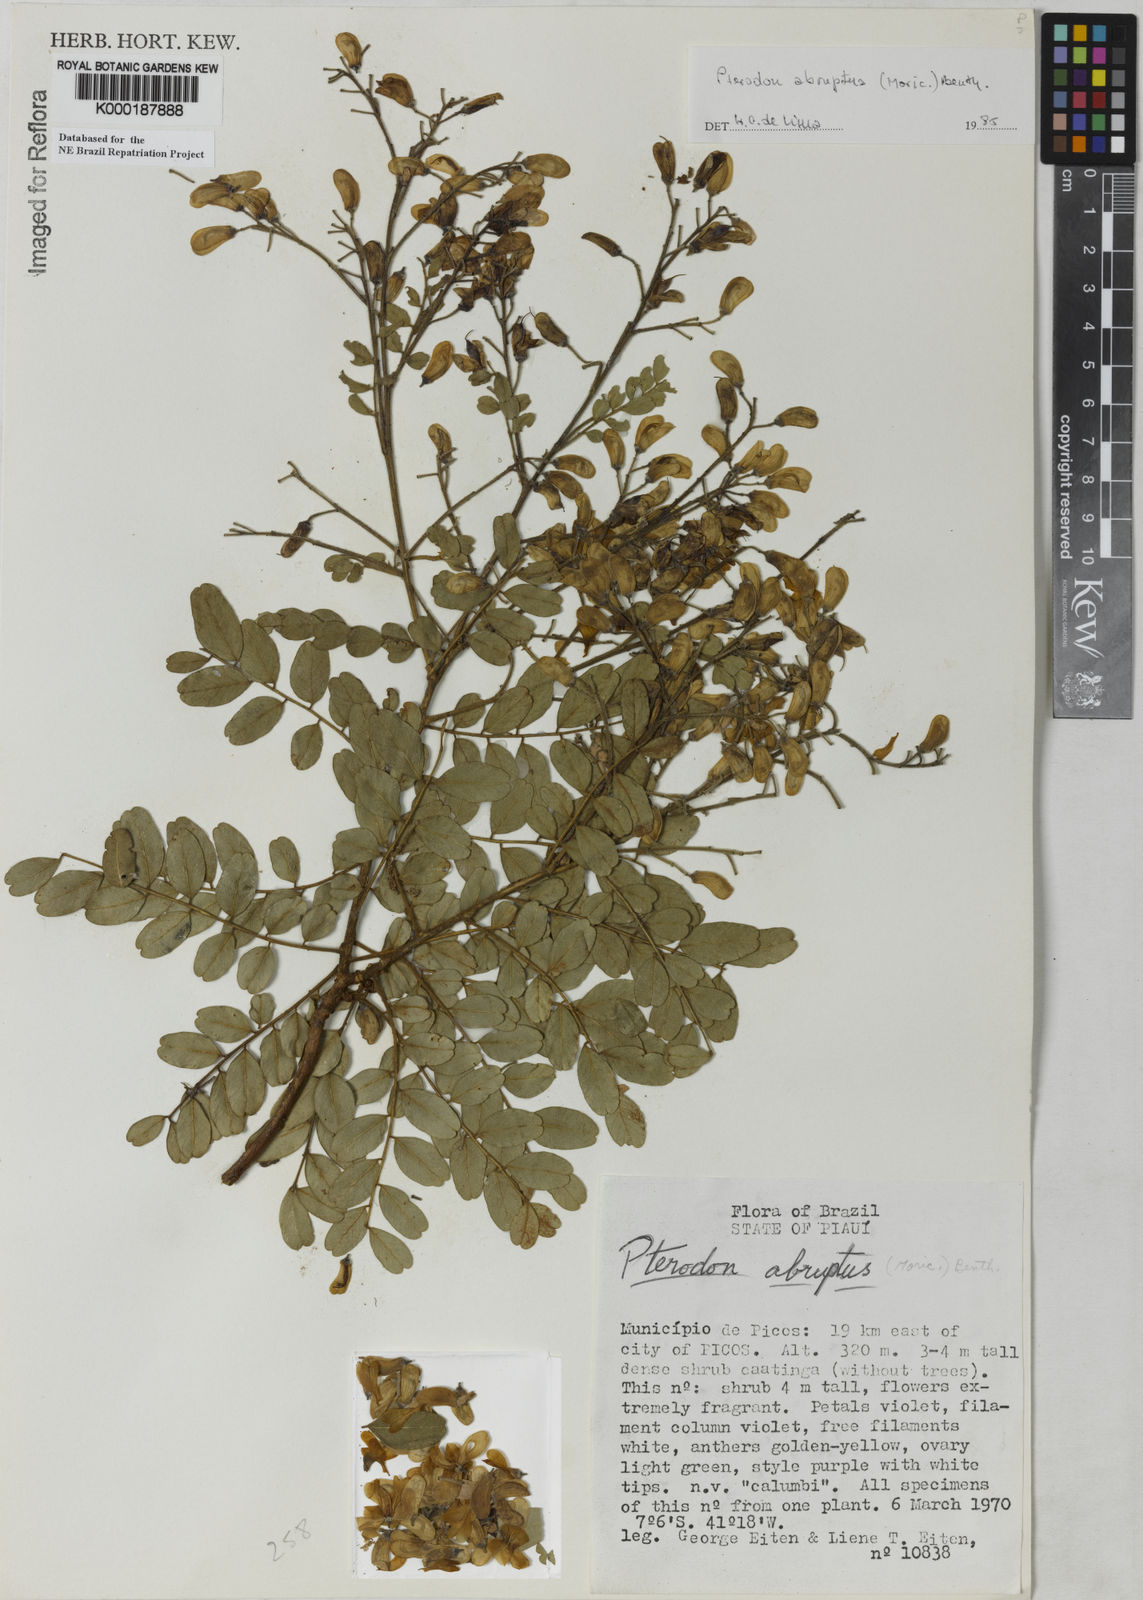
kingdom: Plantae
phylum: Tracheophyta
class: Magnoliopsida
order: Fabales
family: Fabaceae
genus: Pterodon
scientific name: Pterodon abruptus
